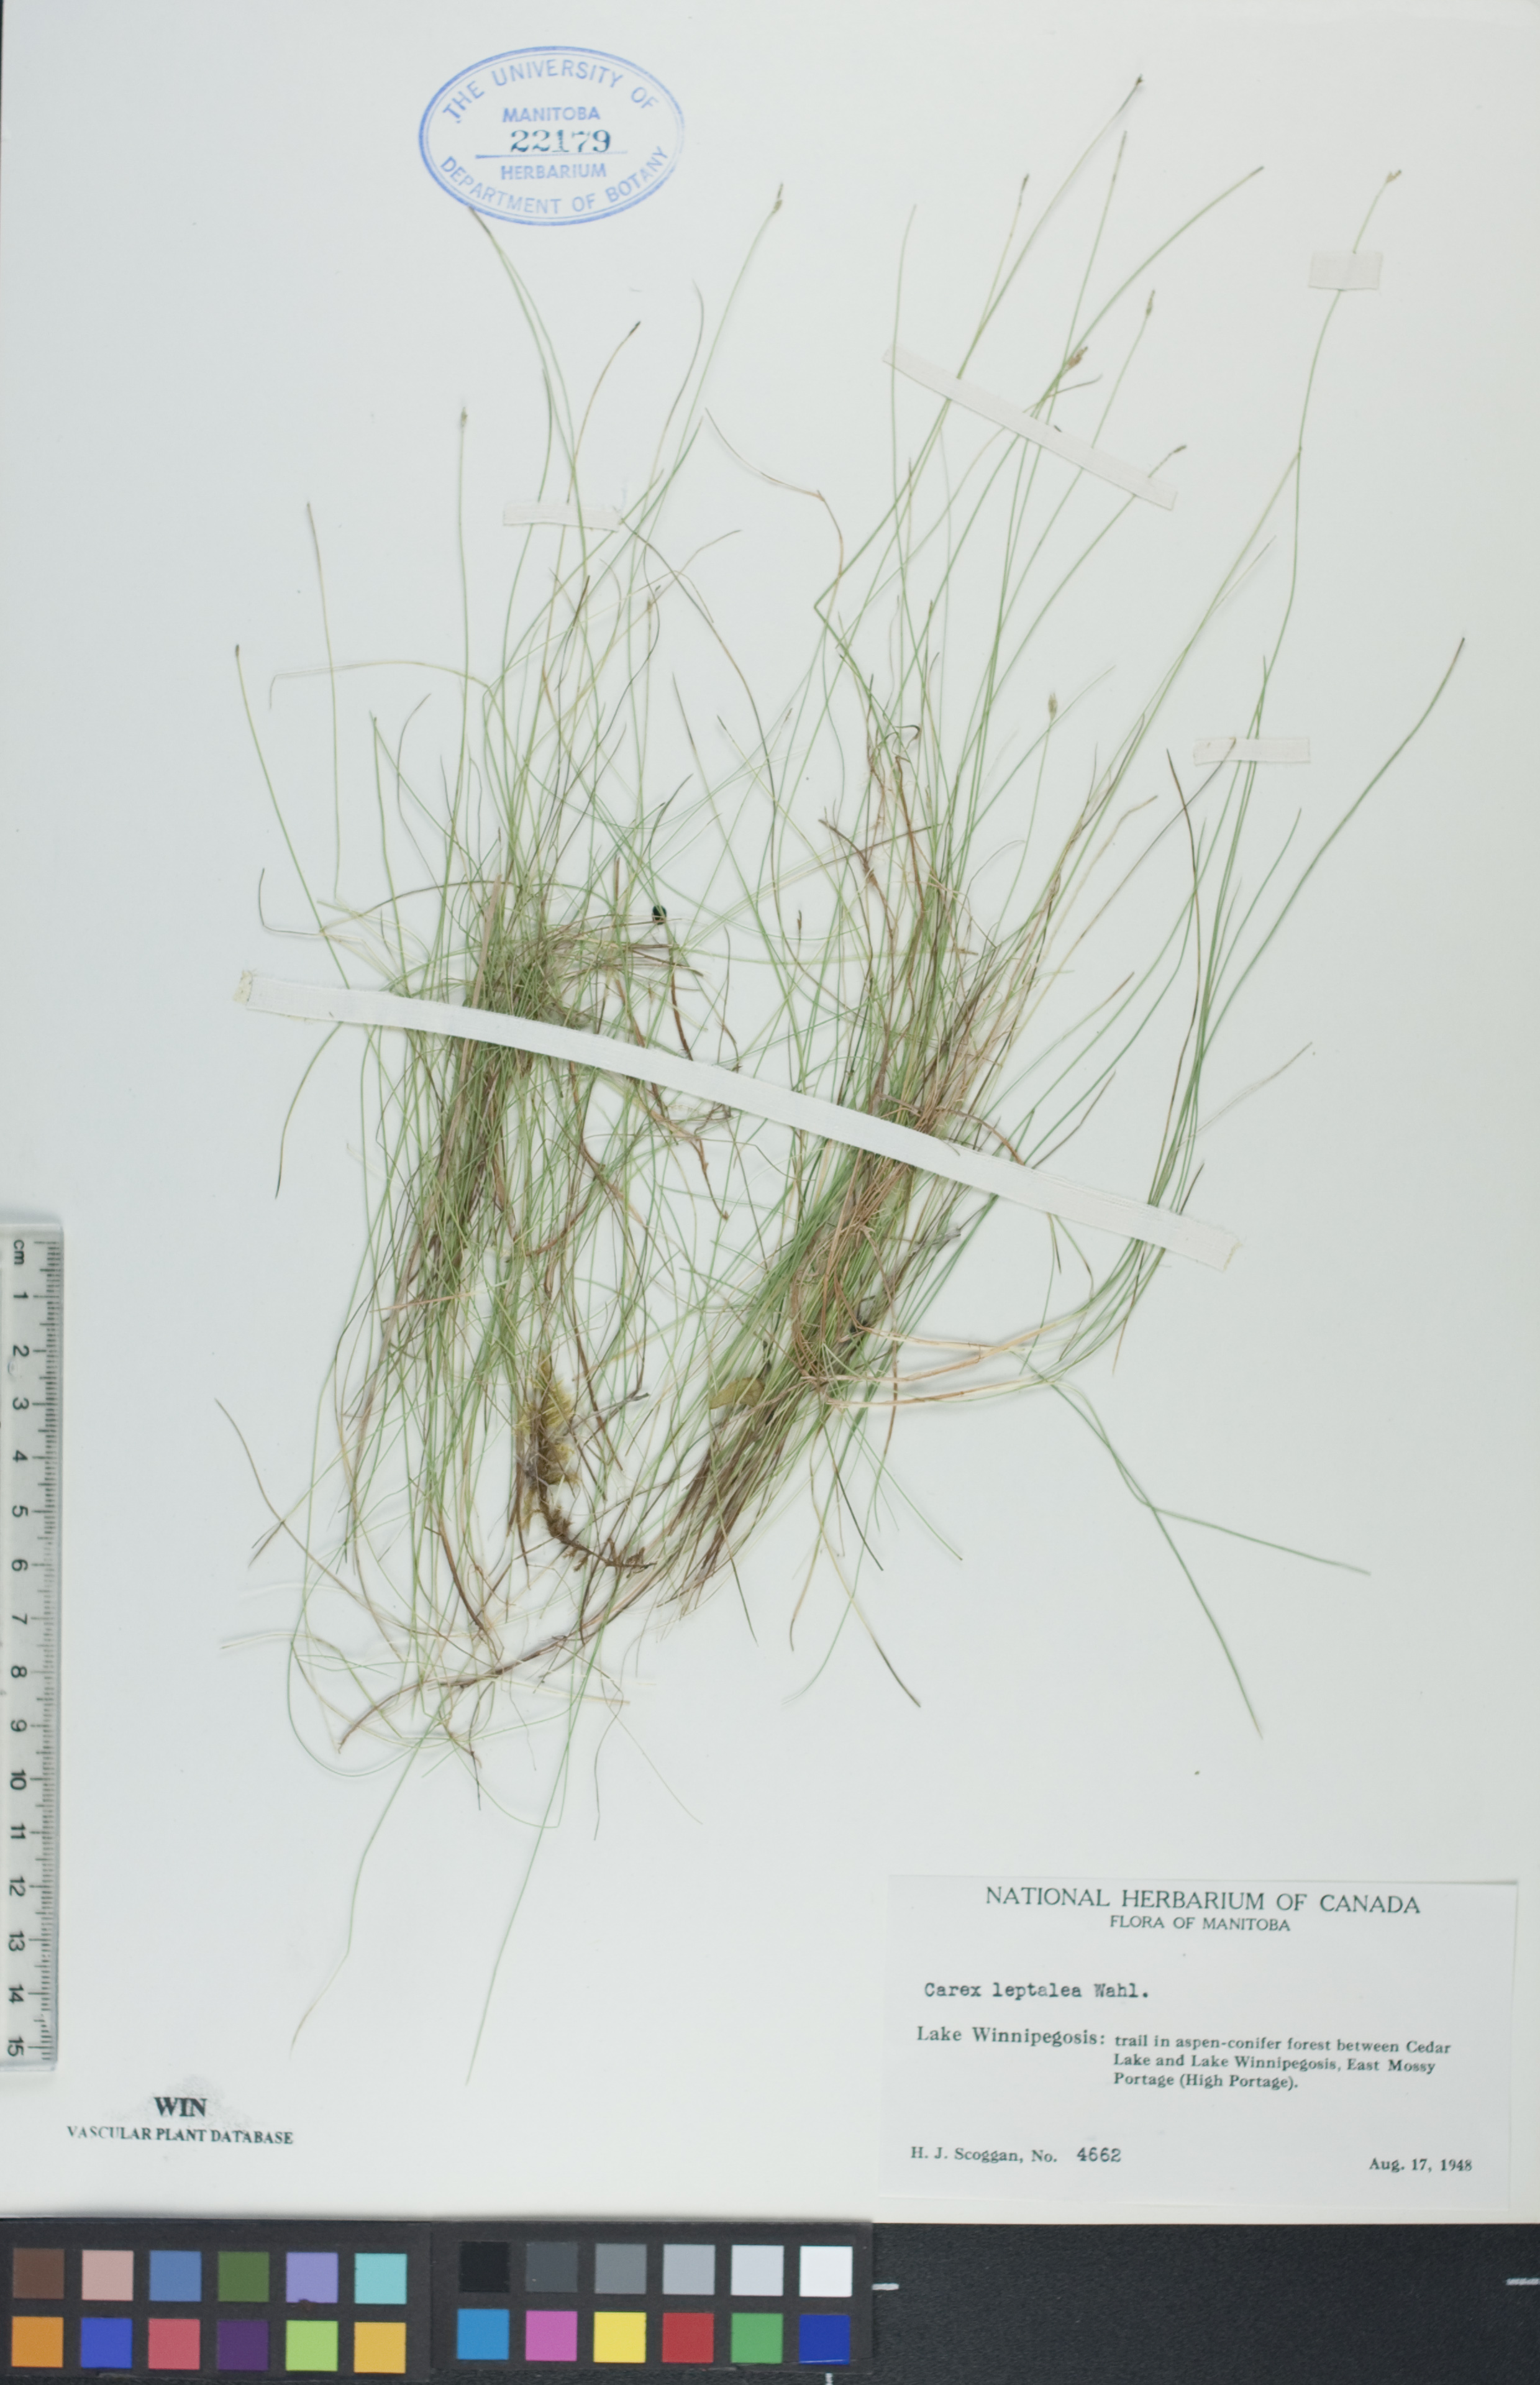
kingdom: Plantae
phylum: Tracheophyta
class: Liliopsida
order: Poales
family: Cyperaceae
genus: Carex
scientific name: Carex leptalea
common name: Bristly-stalked sedge
